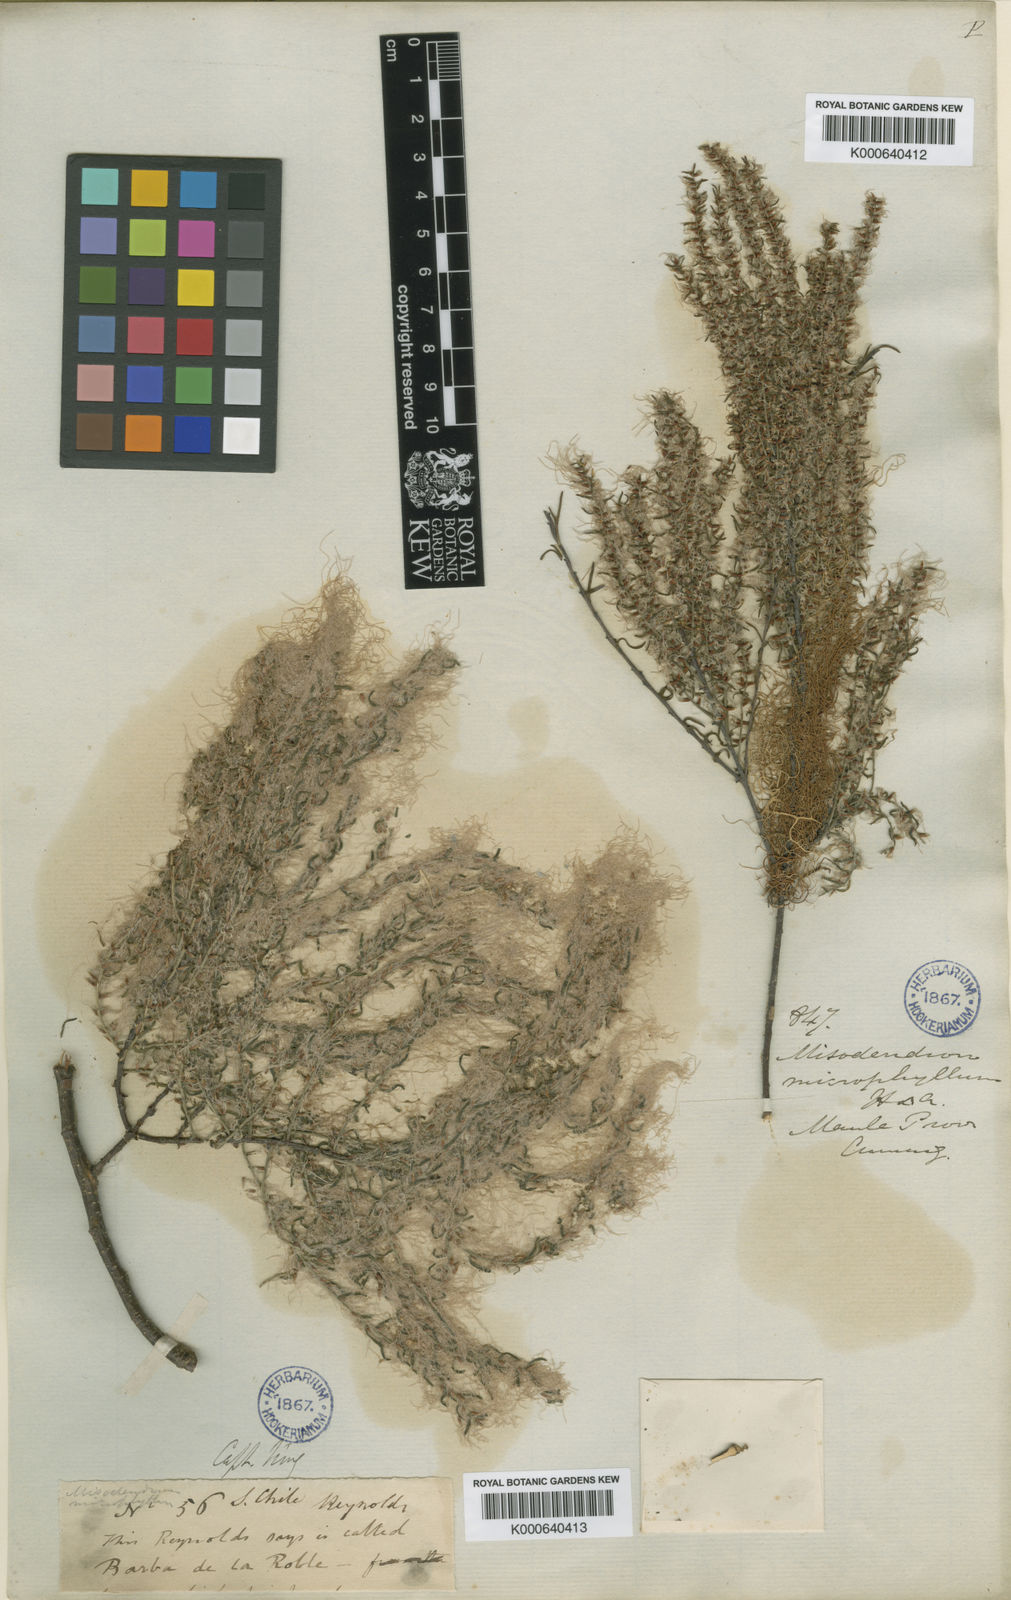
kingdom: Plantae
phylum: Tracheophyta
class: Magnoliopsida
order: Santalales
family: Misodendraceae
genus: Misodendrum
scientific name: Misodendrum linearifolium
